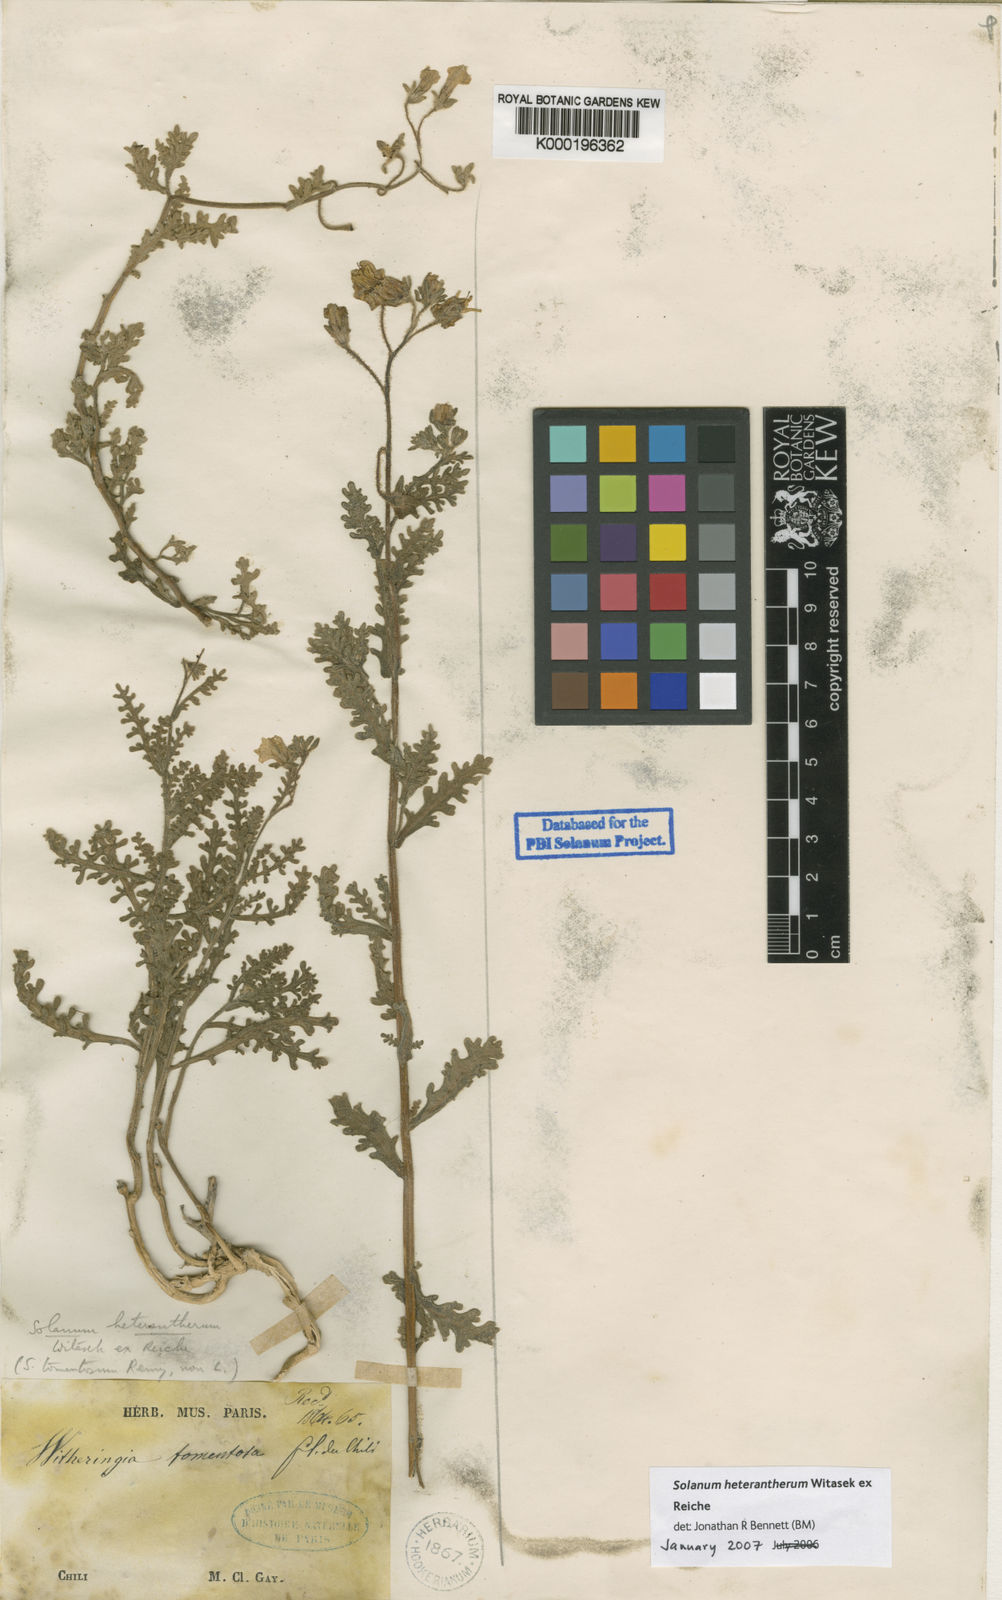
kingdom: Plantae
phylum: Tracheophyta
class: Magnoliopsida
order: Solanales
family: Solanaceae
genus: Solanum
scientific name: Solanum trinominum
